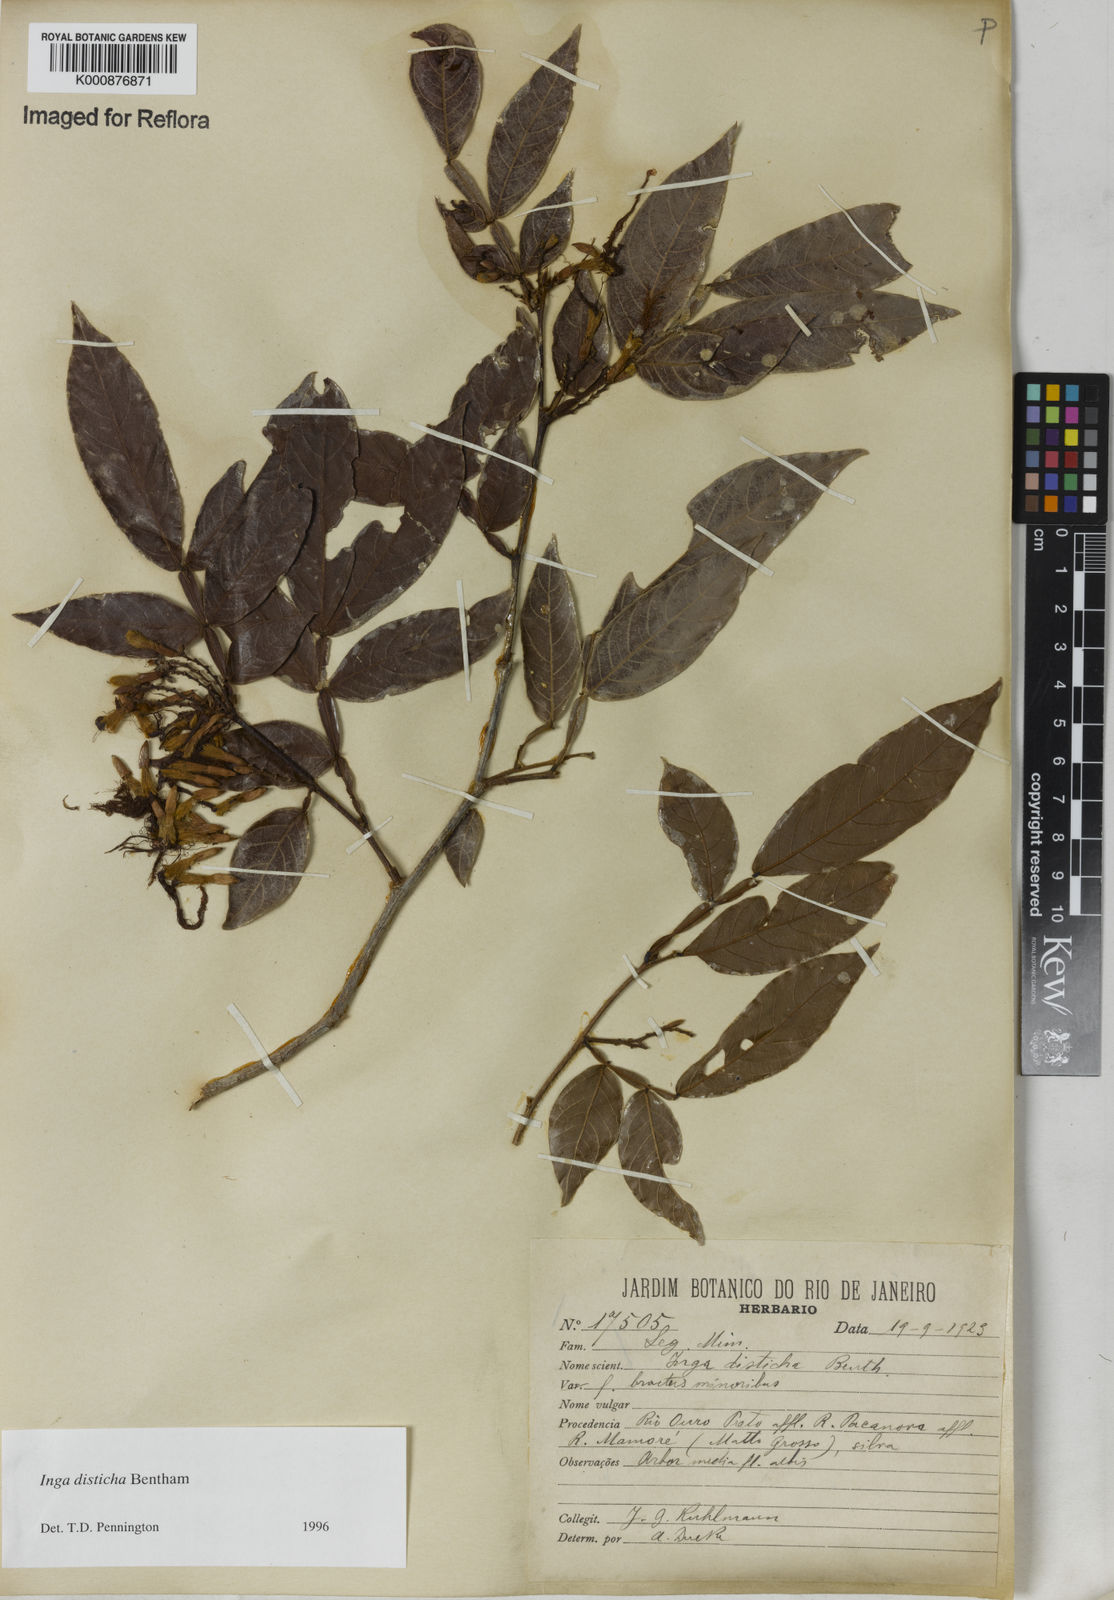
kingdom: Plantae
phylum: Tracheophyta
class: Magnoliopsida
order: Fabales
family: Fabaceae
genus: Inga
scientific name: Inga disticha
